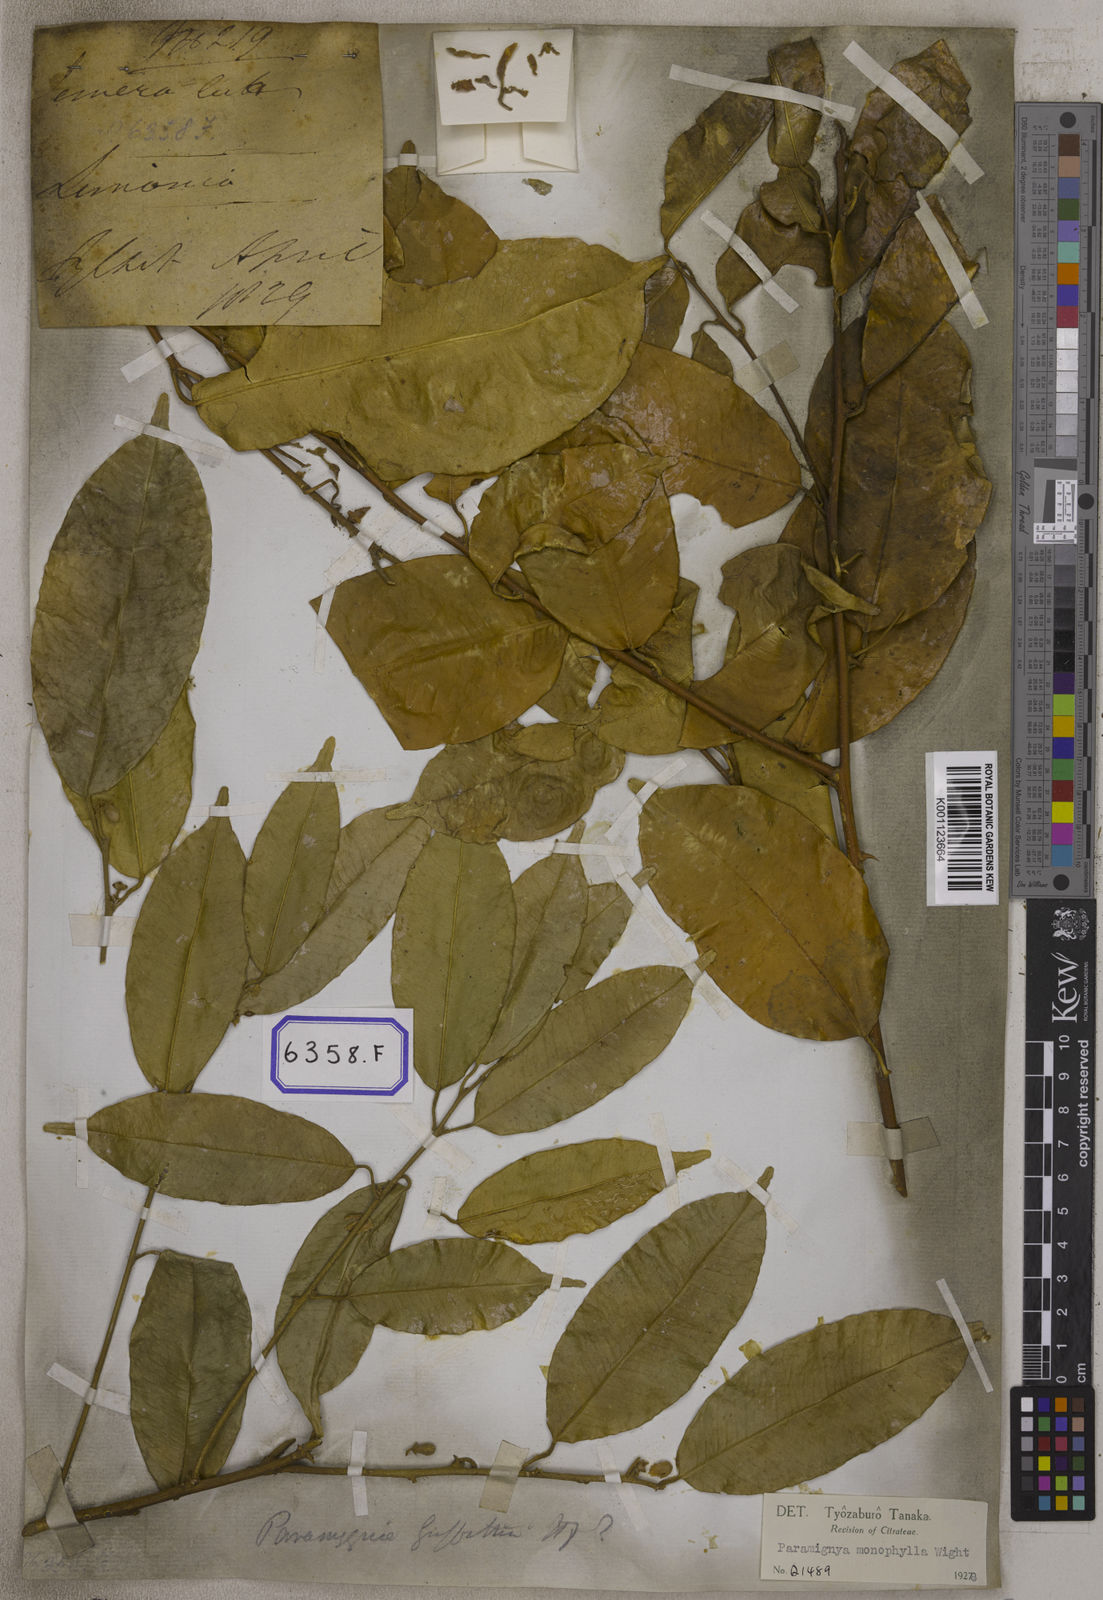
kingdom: Plantae
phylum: Tracheophyta
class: Magnoliopsida
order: Sapindales
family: Rutaceae
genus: Limonia
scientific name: Limonia
